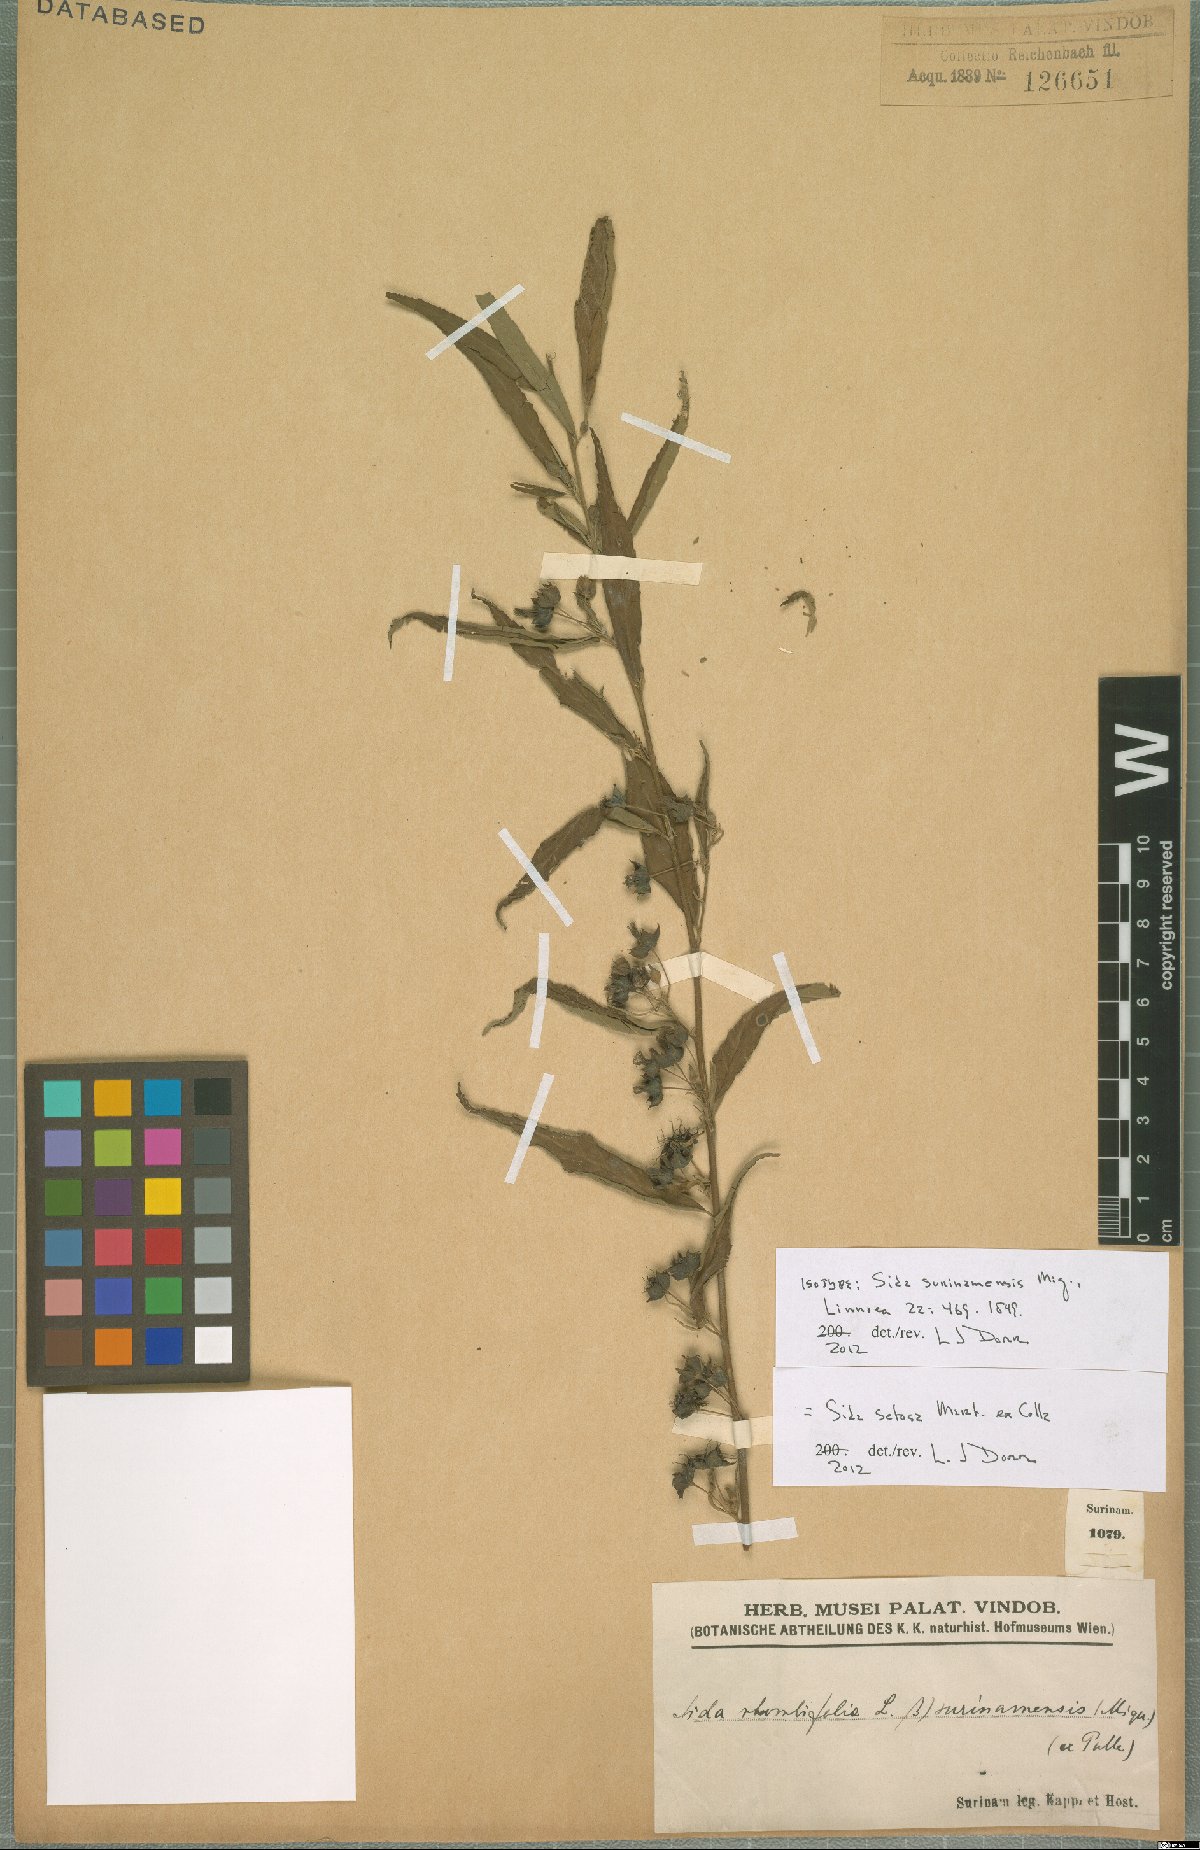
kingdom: Plantae
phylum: Tracheophyta
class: Magnoliopsida
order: Malvales
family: Malvaceae
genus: Sida
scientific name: Sida setosa
